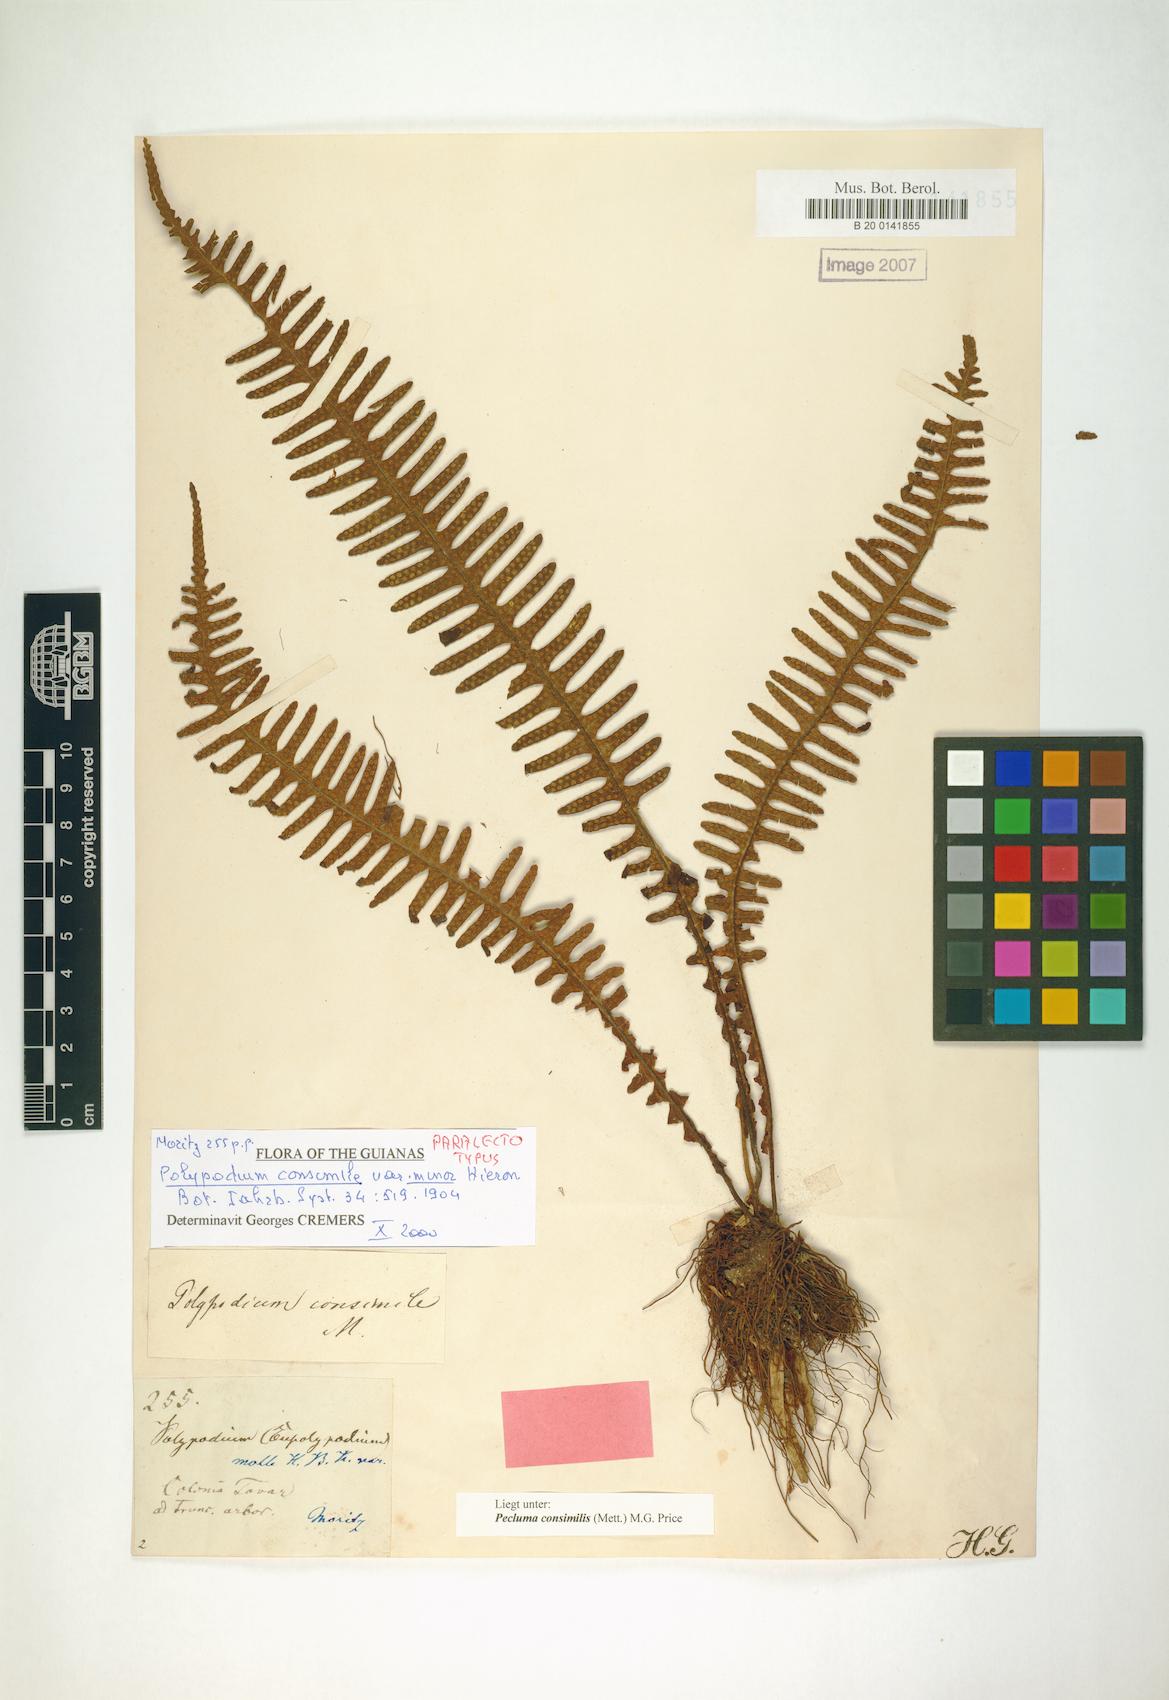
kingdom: Plantae
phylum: Tracheophyta
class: Polypodiopsida
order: Polypodiales
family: Polypodiaceae
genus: Pecluma
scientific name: Pecluma consimilis
